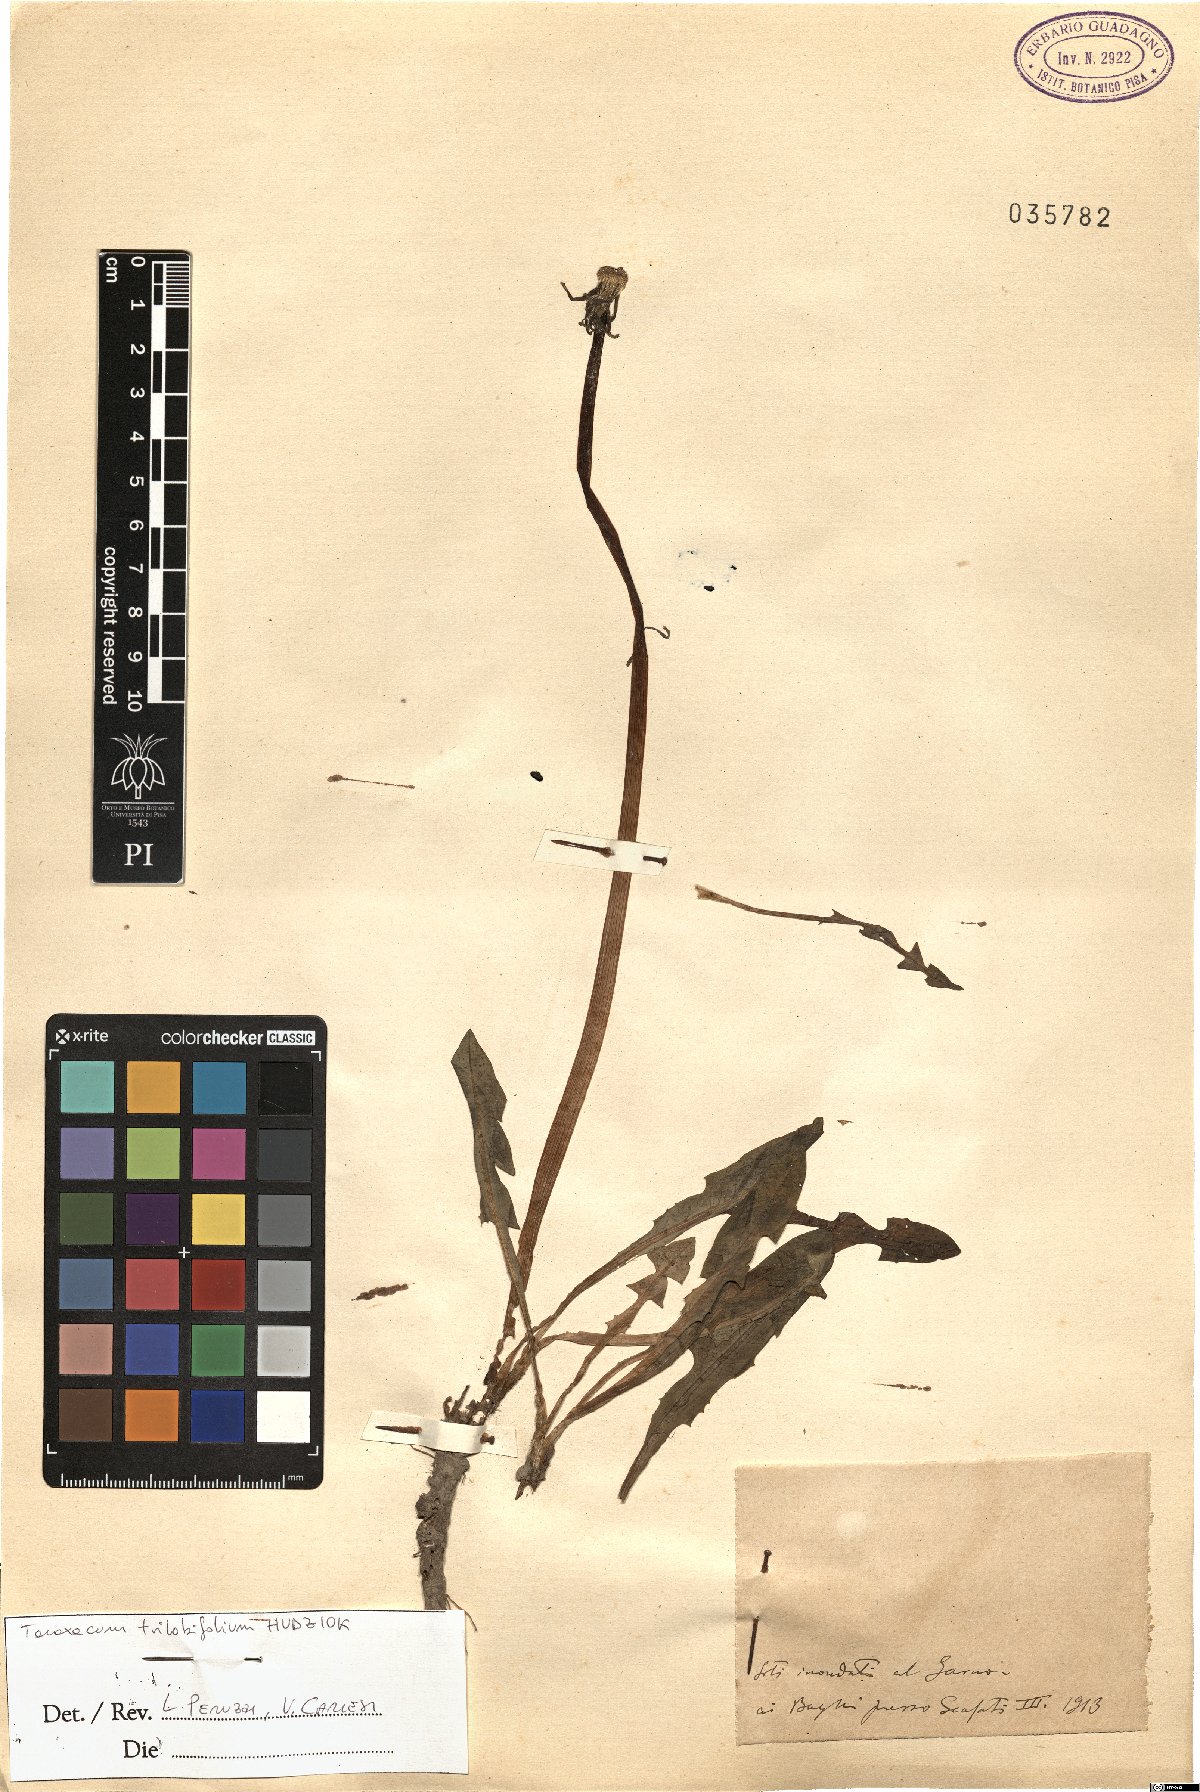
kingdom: Plantae
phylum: Tracheophyta
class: Magnoliopsida
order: Asterales
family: Asteraceae
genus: Taraxacum
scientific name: Taraxacum trilobifolium
